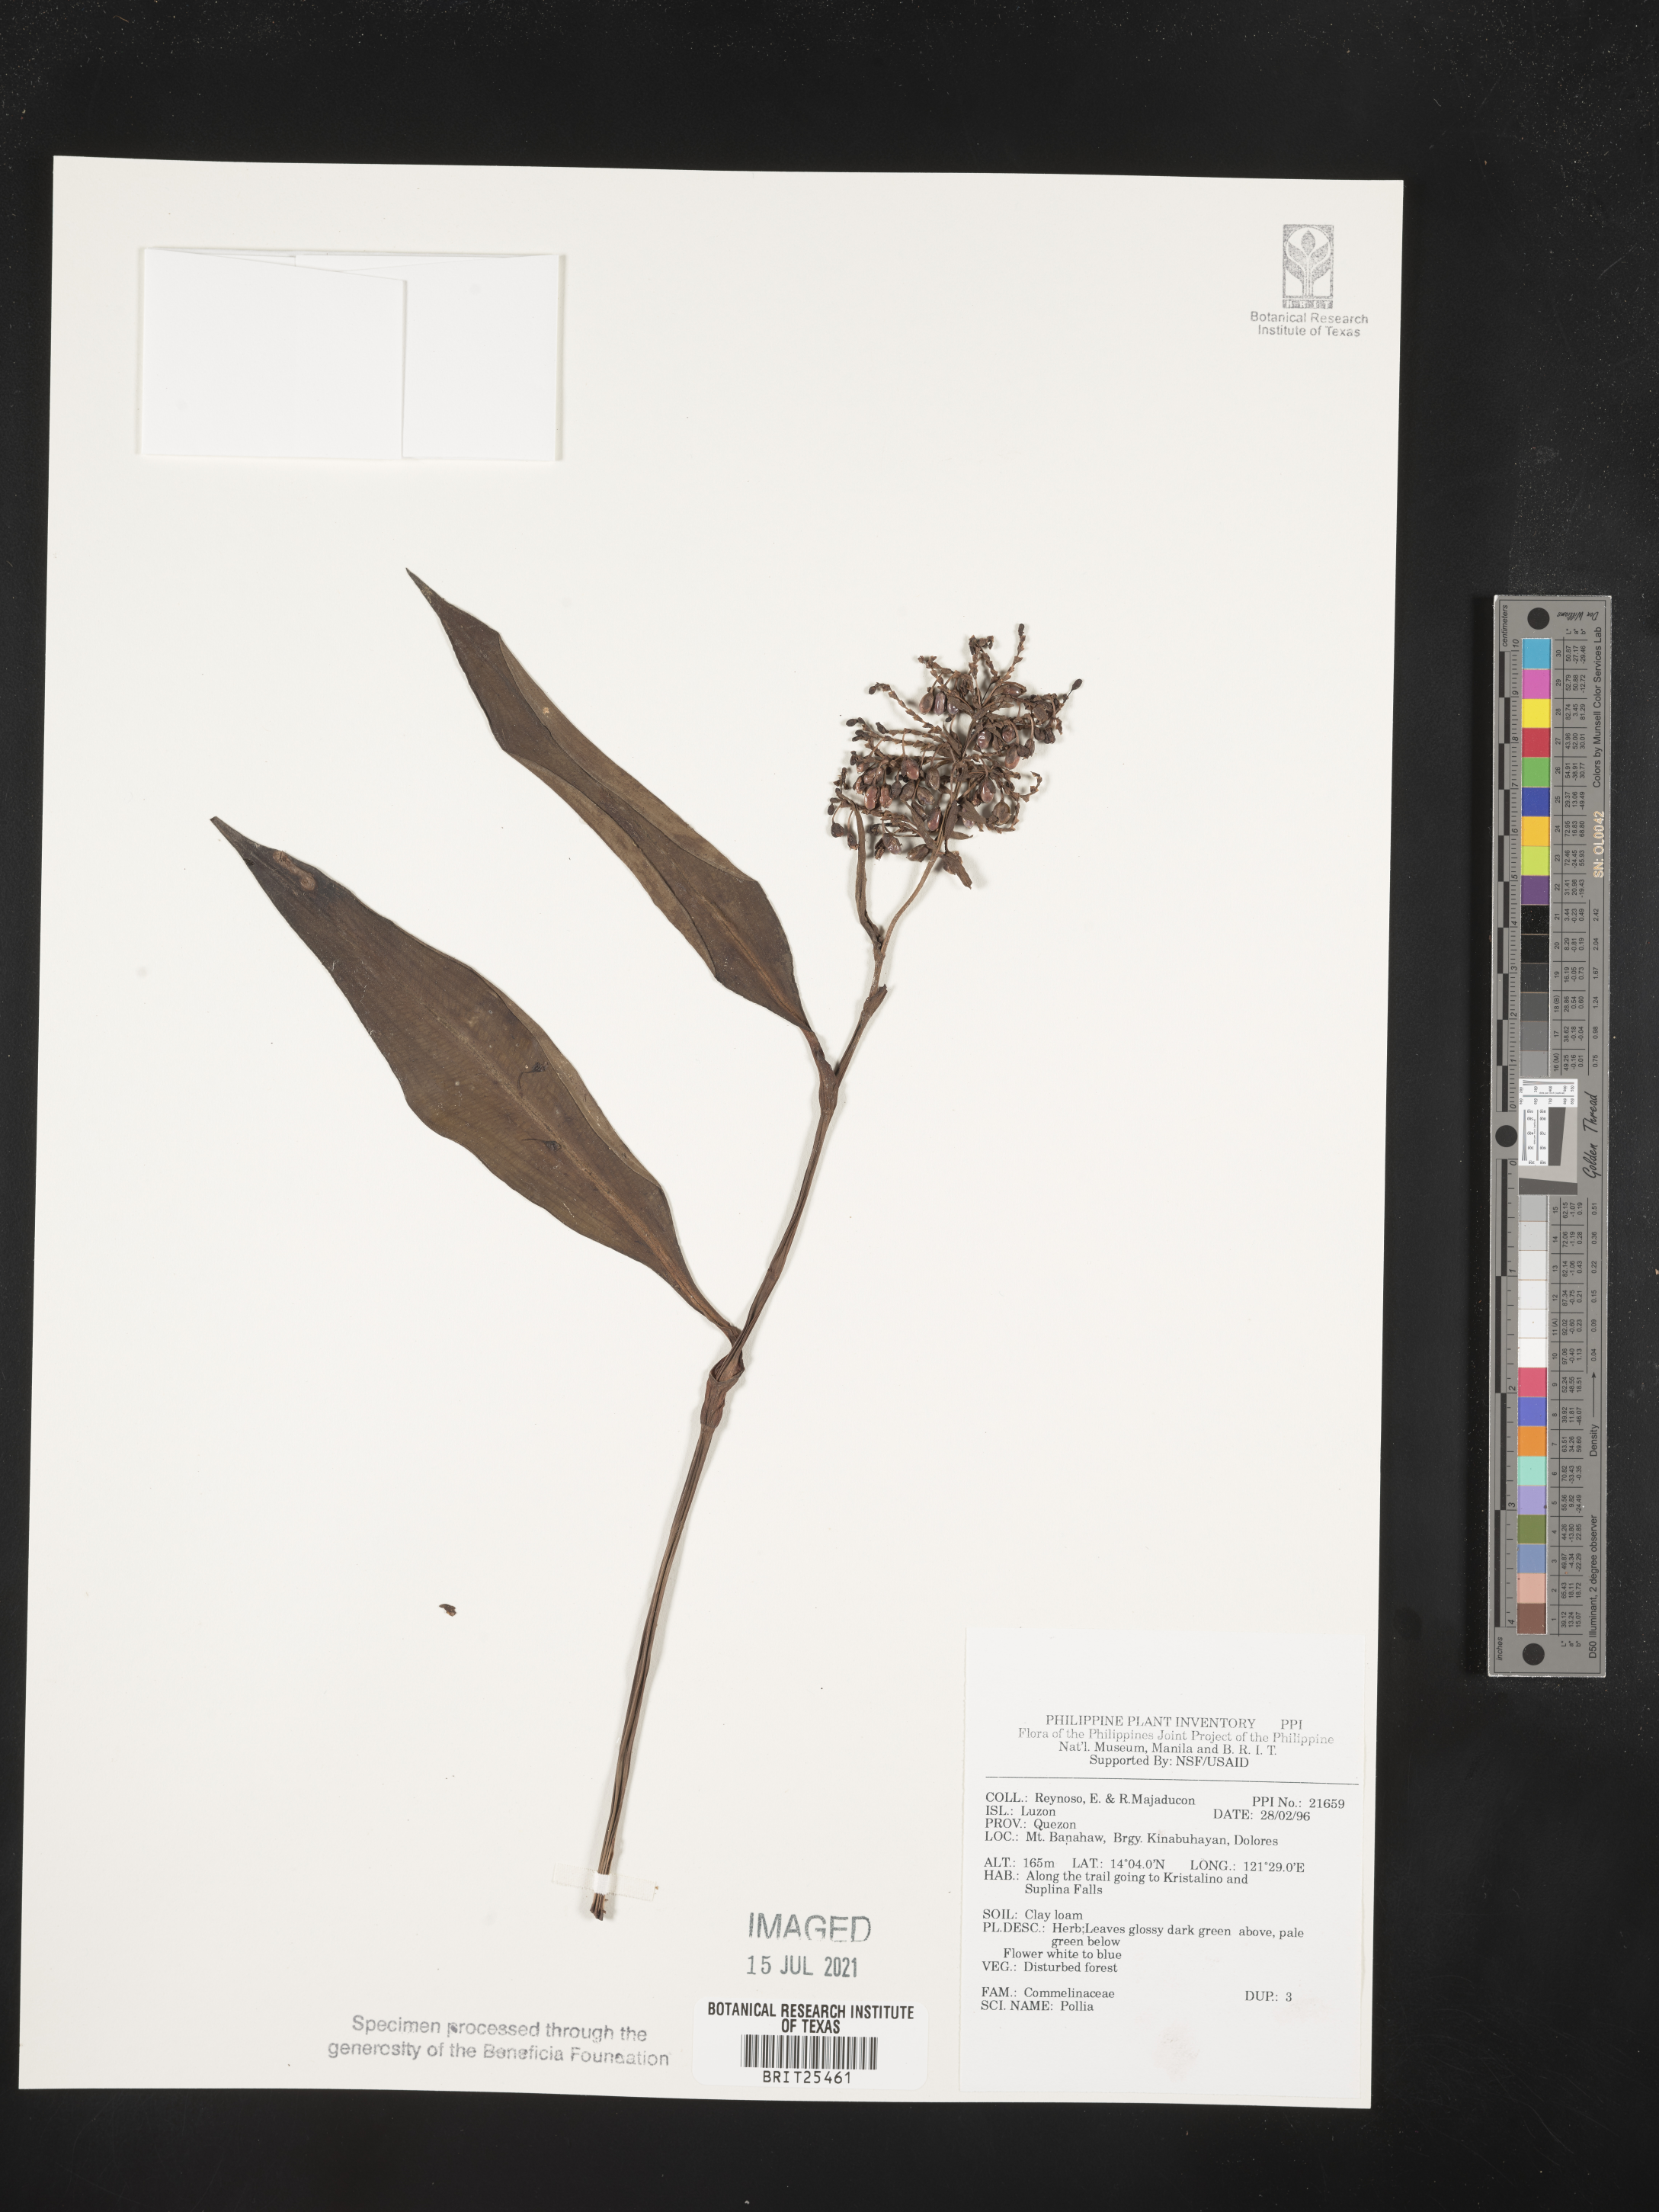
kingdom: Plantae
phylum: Tracheophyta
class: Liliopsida
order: Commelinales
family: Commelinaceae
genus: Pollia
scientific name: Pollia
